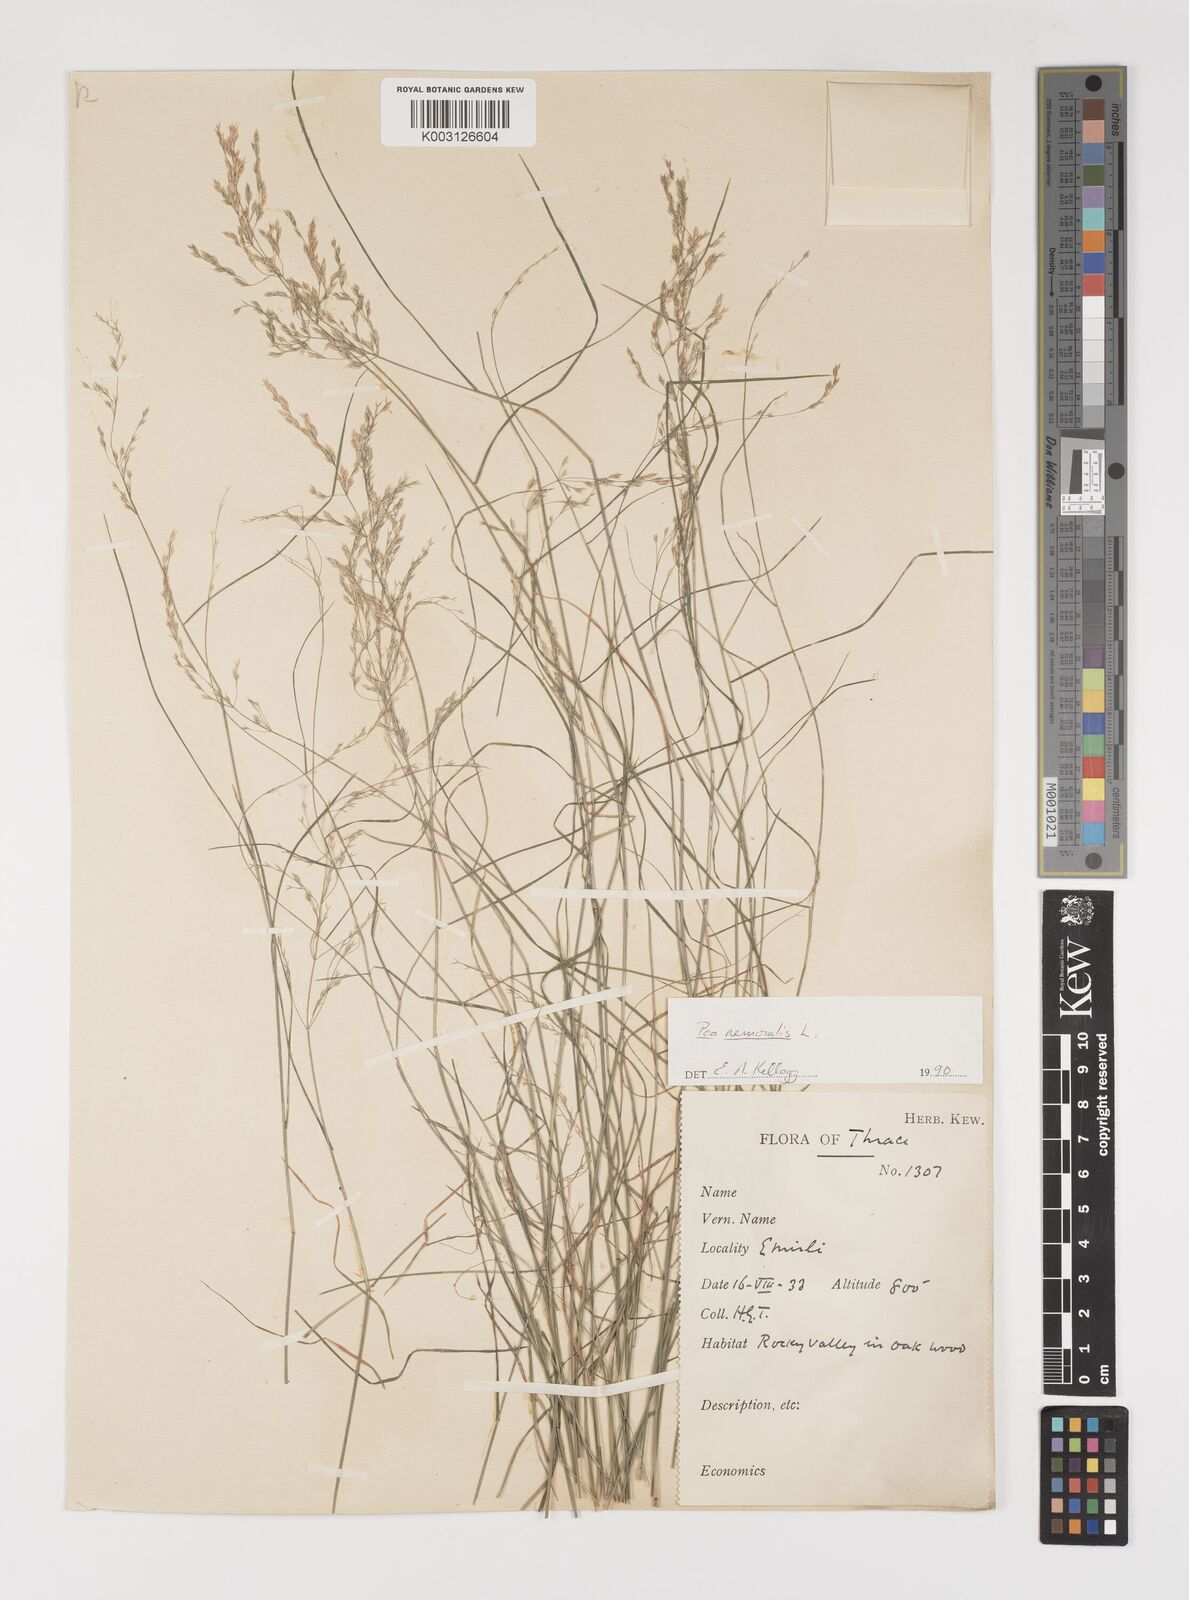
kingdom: Plantae
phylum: Tracheophyta
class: Liliopsida
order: Poales
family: Poaceae
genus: Poa
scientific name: Poa nemoralis
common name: Wood bluegrass
